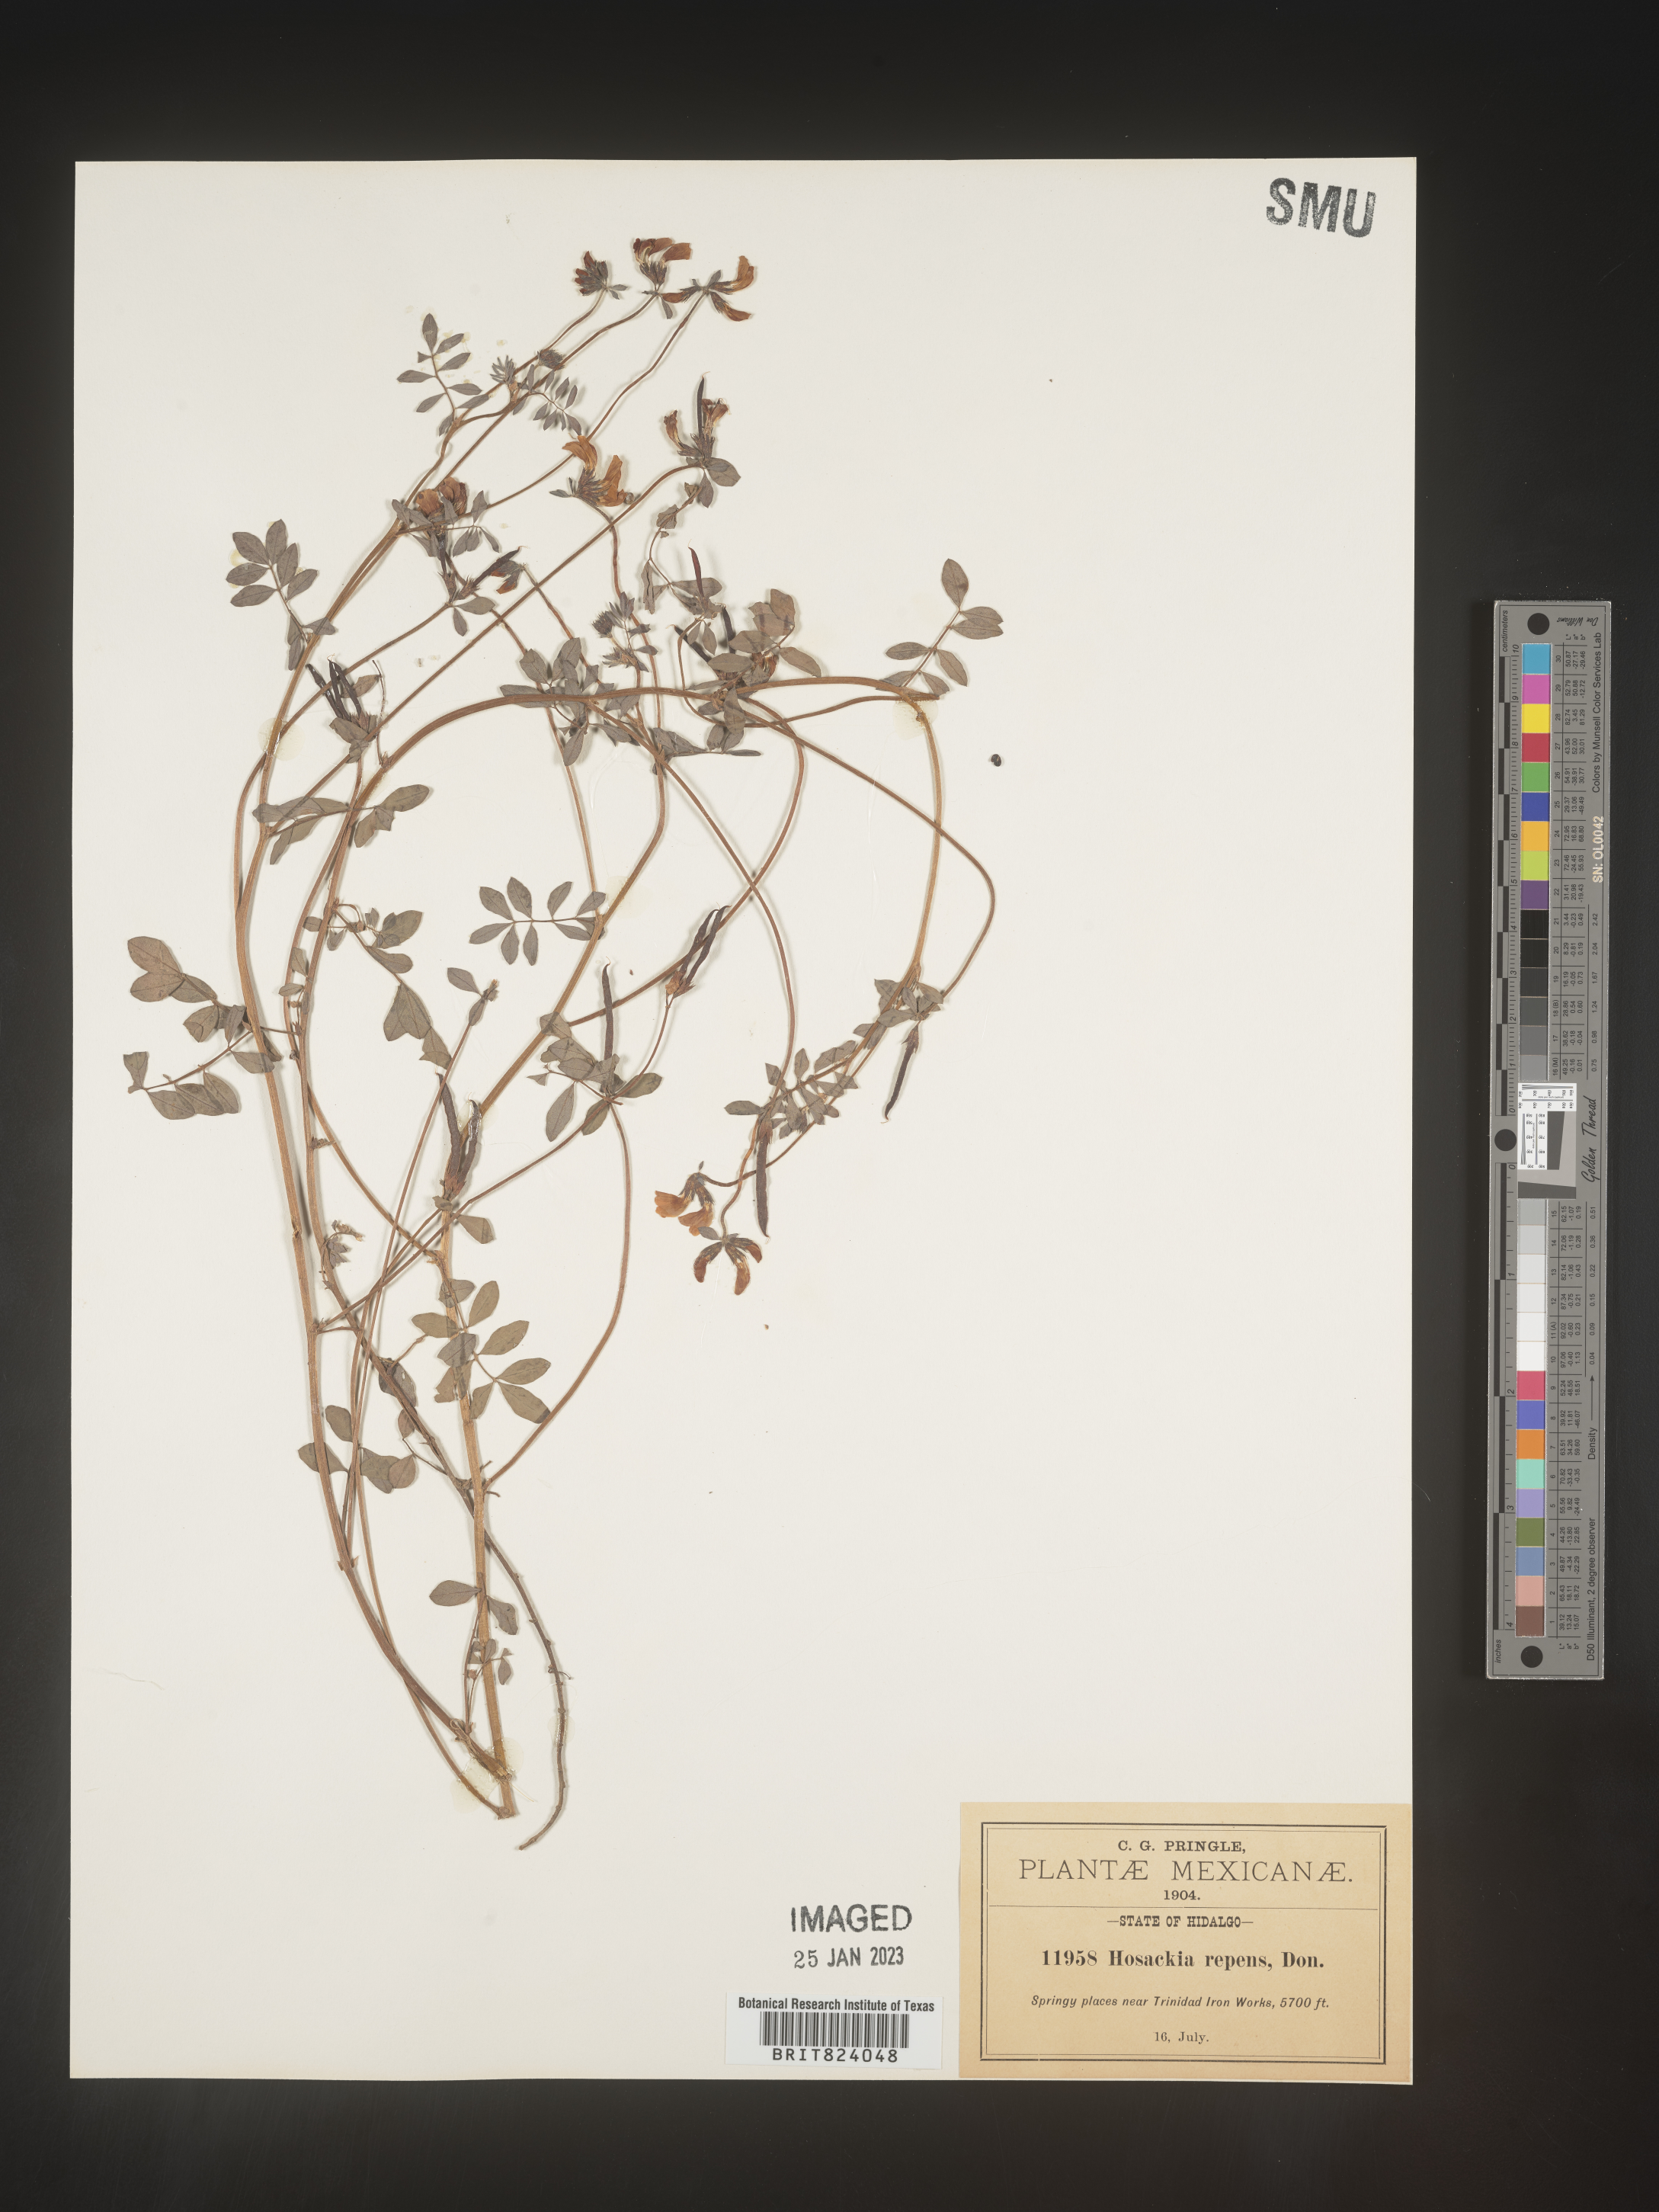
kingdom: Plantae
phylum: Tracheophyta
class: Magnoliopsida
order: Fabales
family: Fabaceae
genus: Lotus
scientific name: Lotus
